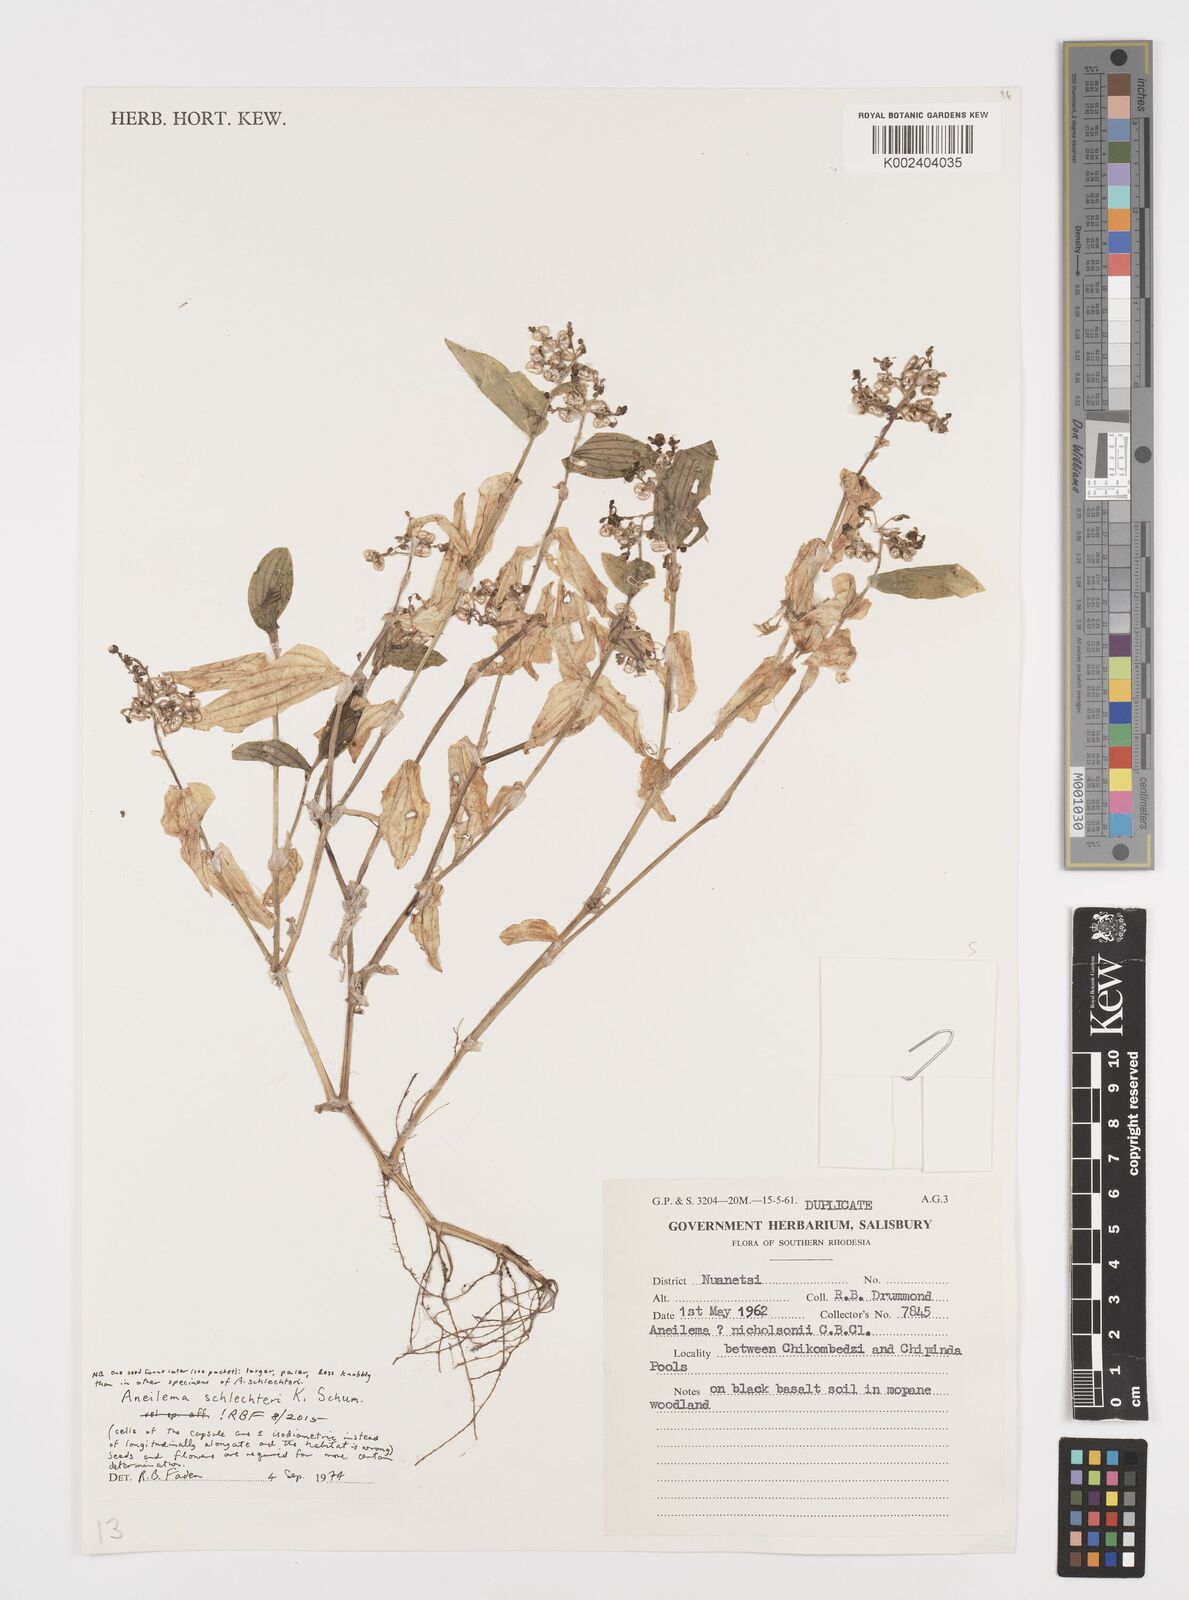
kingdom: Plantae
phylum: Tracheophyta
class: Liliopsida
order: Commelinales
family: Commelinaceae
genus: Aneilema
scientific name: Aneilema schlechteri
